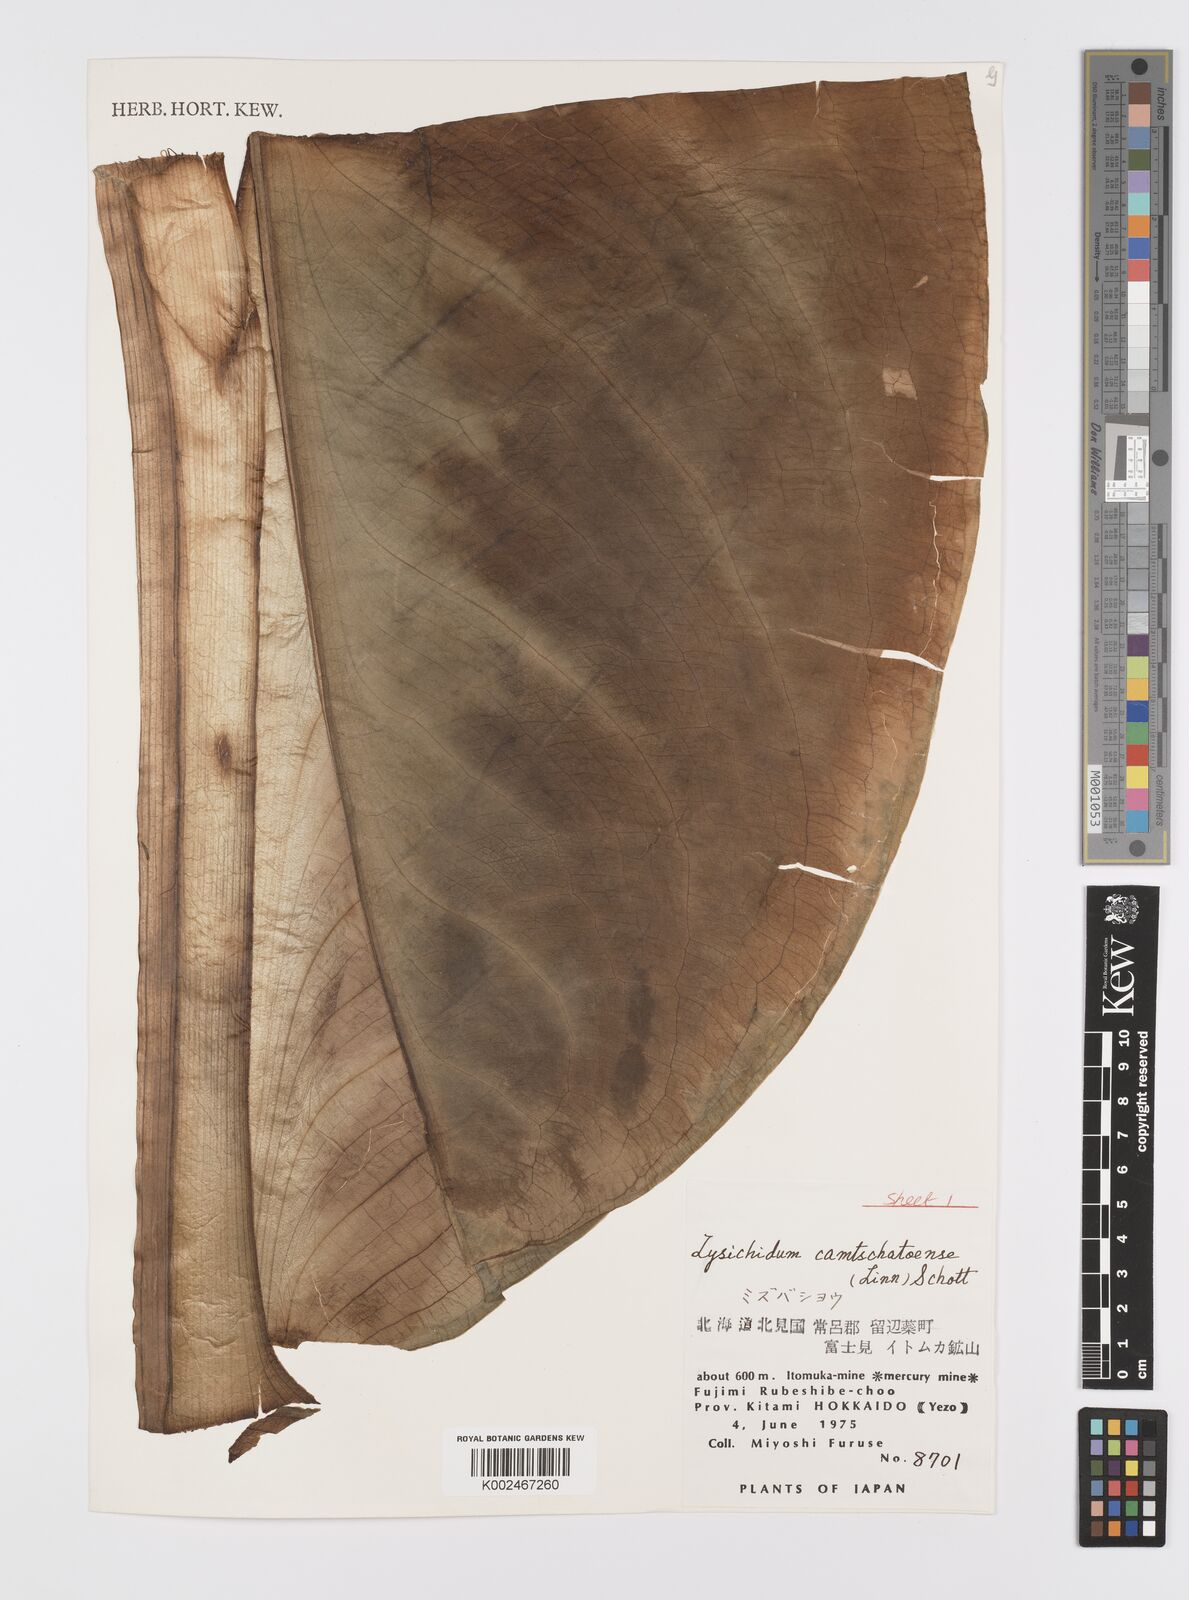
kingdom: Plantae
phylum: Tracheophyta
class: Liliopsida
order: Alismatales
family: Araceae
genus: Lysichiton
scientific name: Lysichiton camtschatcensis
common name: Asian skunk-cabbage
